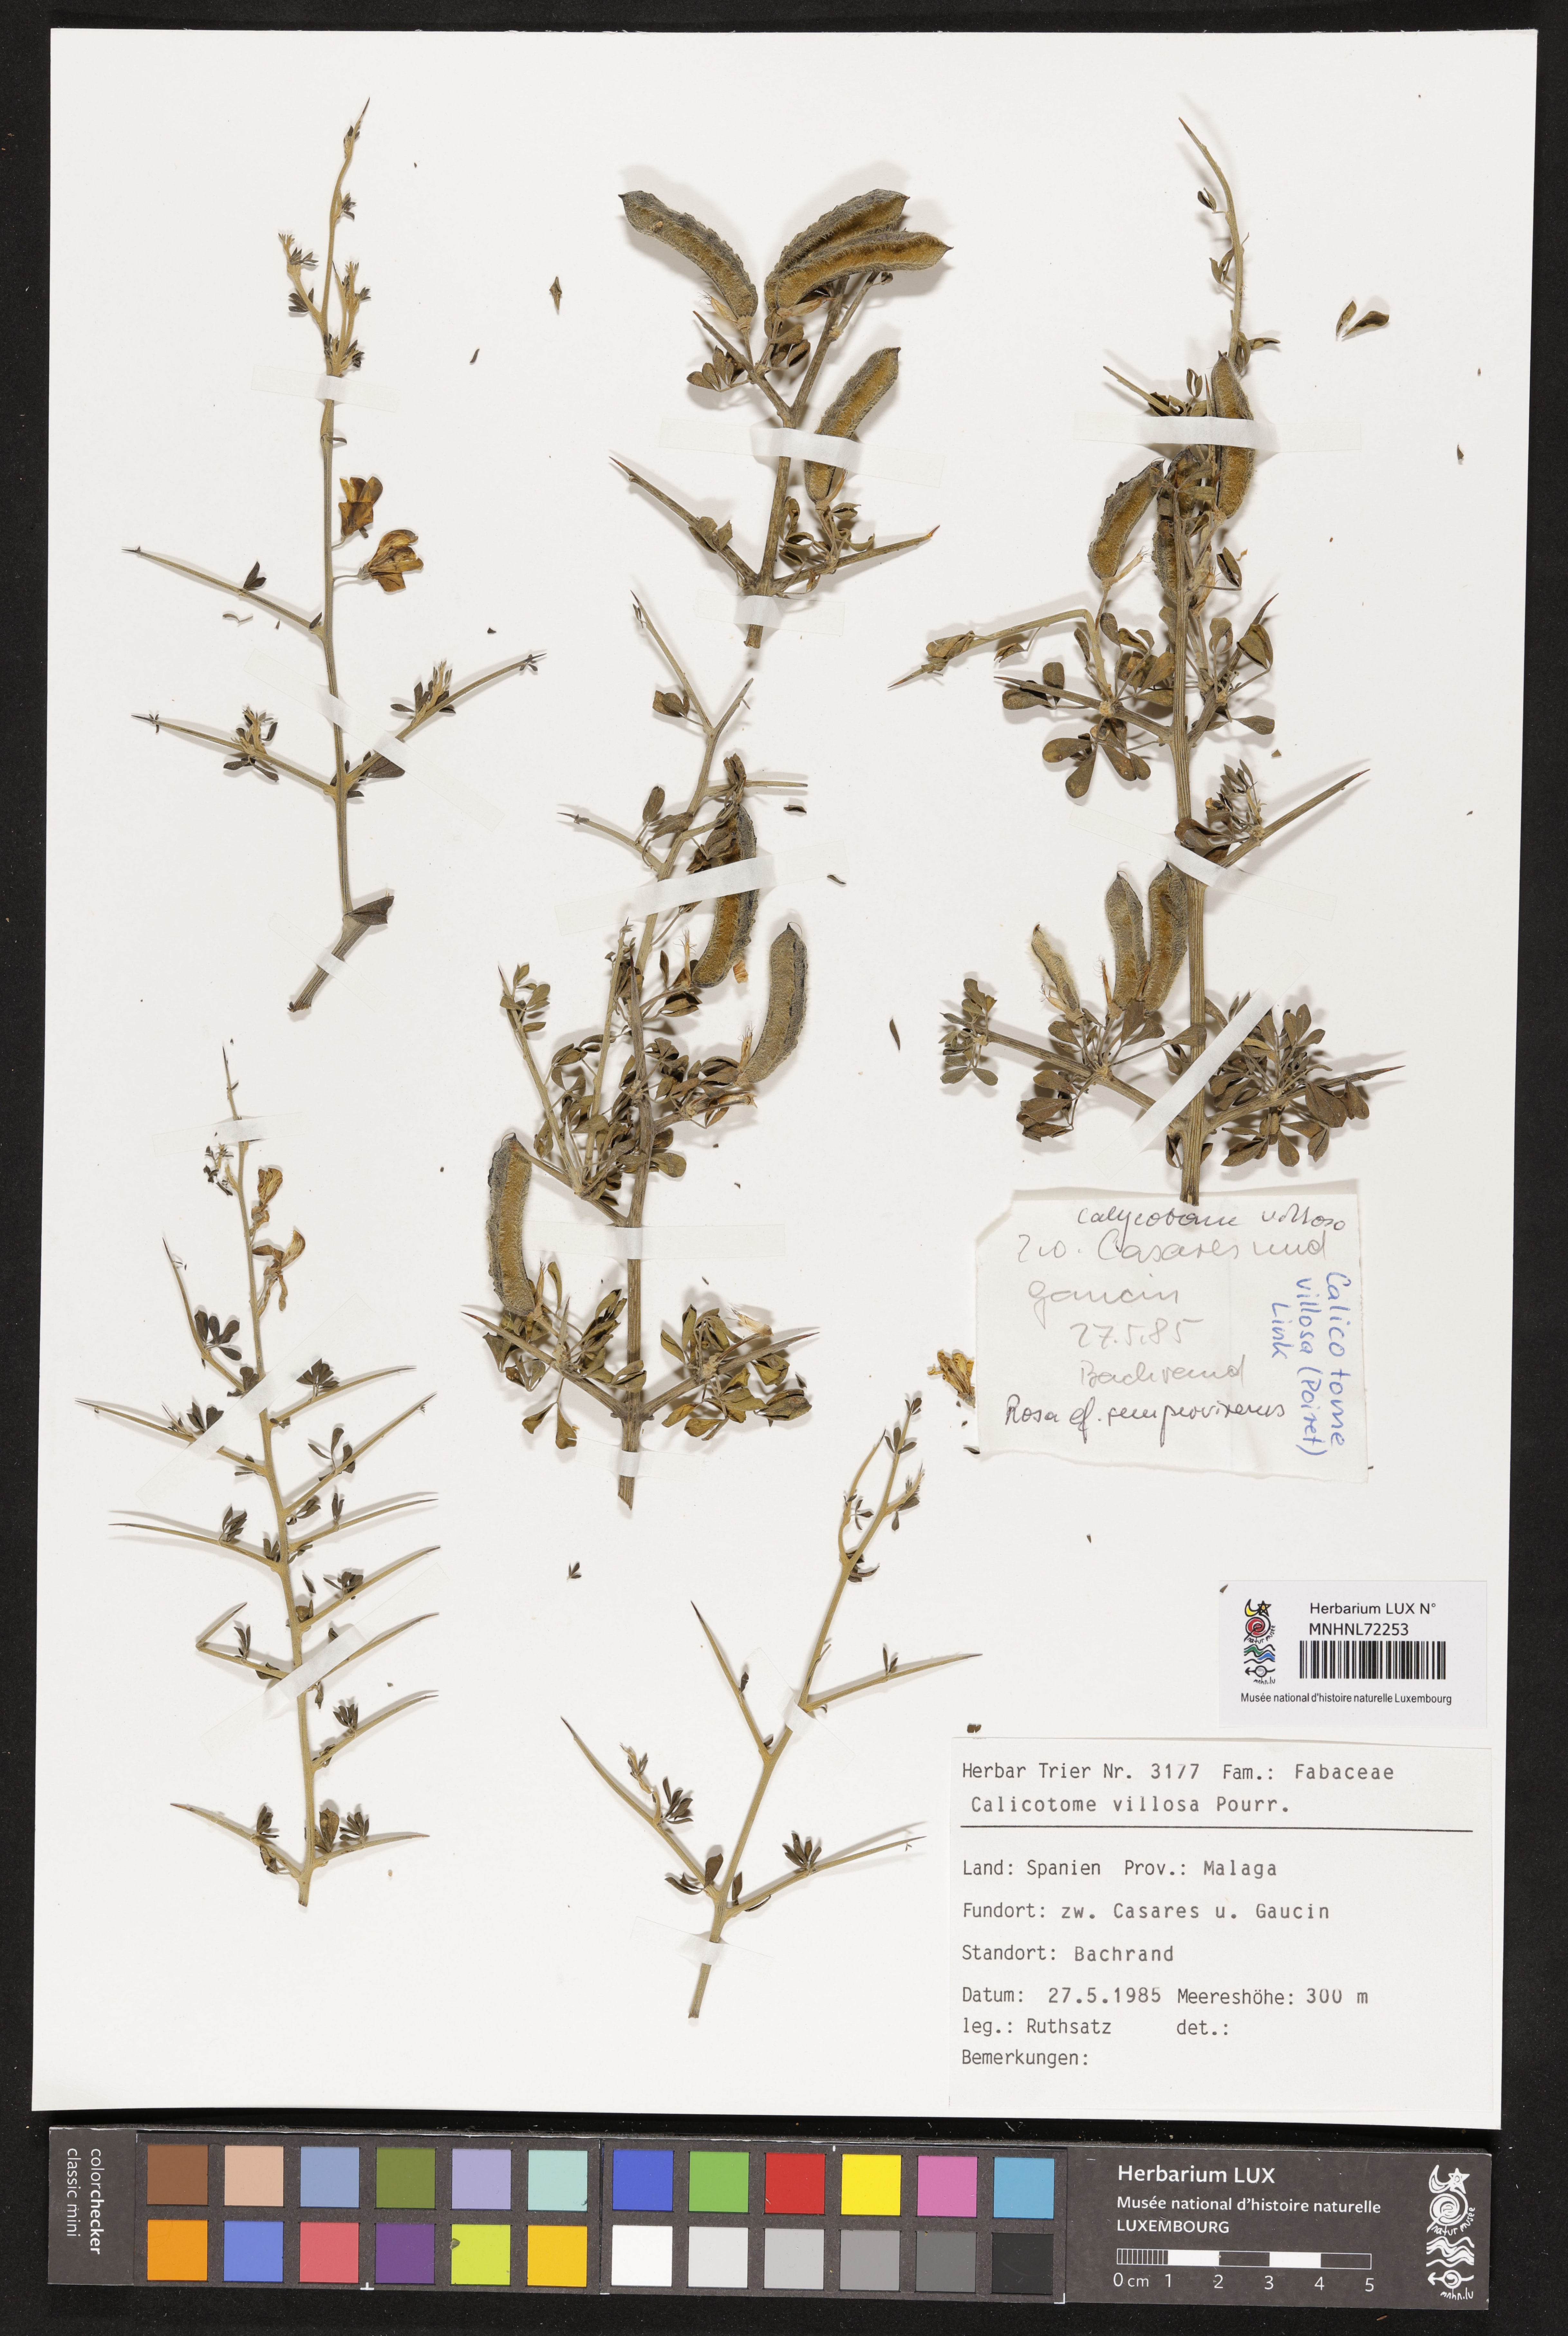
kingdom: Plantae
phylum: Tracheophyta
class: Magnoliopsida
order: Fabales
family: Fabaceae
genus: Calicotome
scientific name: Calicotome villosa
